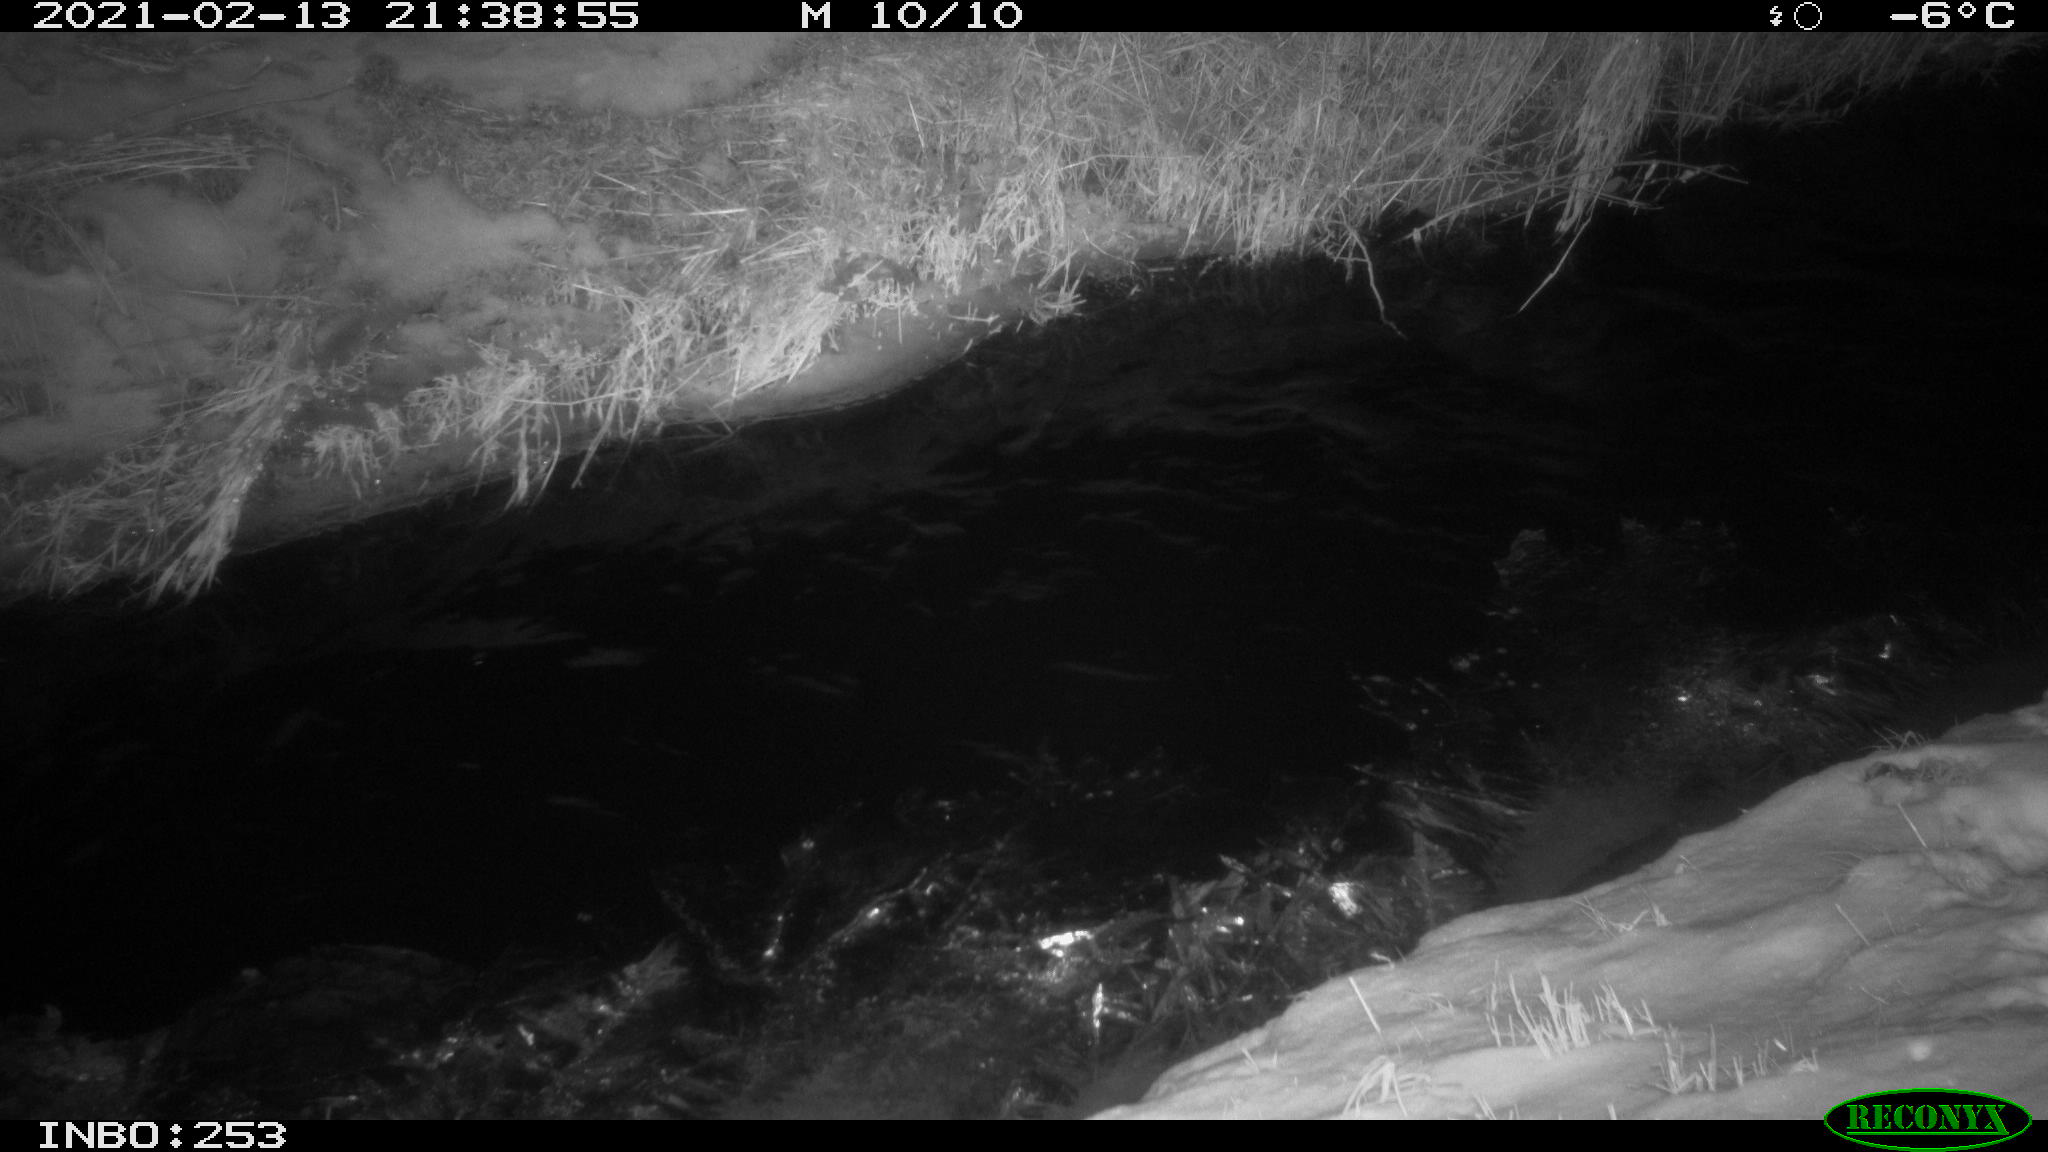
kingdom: Animalia
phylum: Chordata
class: Aves
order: Anseriformes
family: Anatidae
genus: Anas
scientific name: Anas platyrhynchos
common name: Mallard
